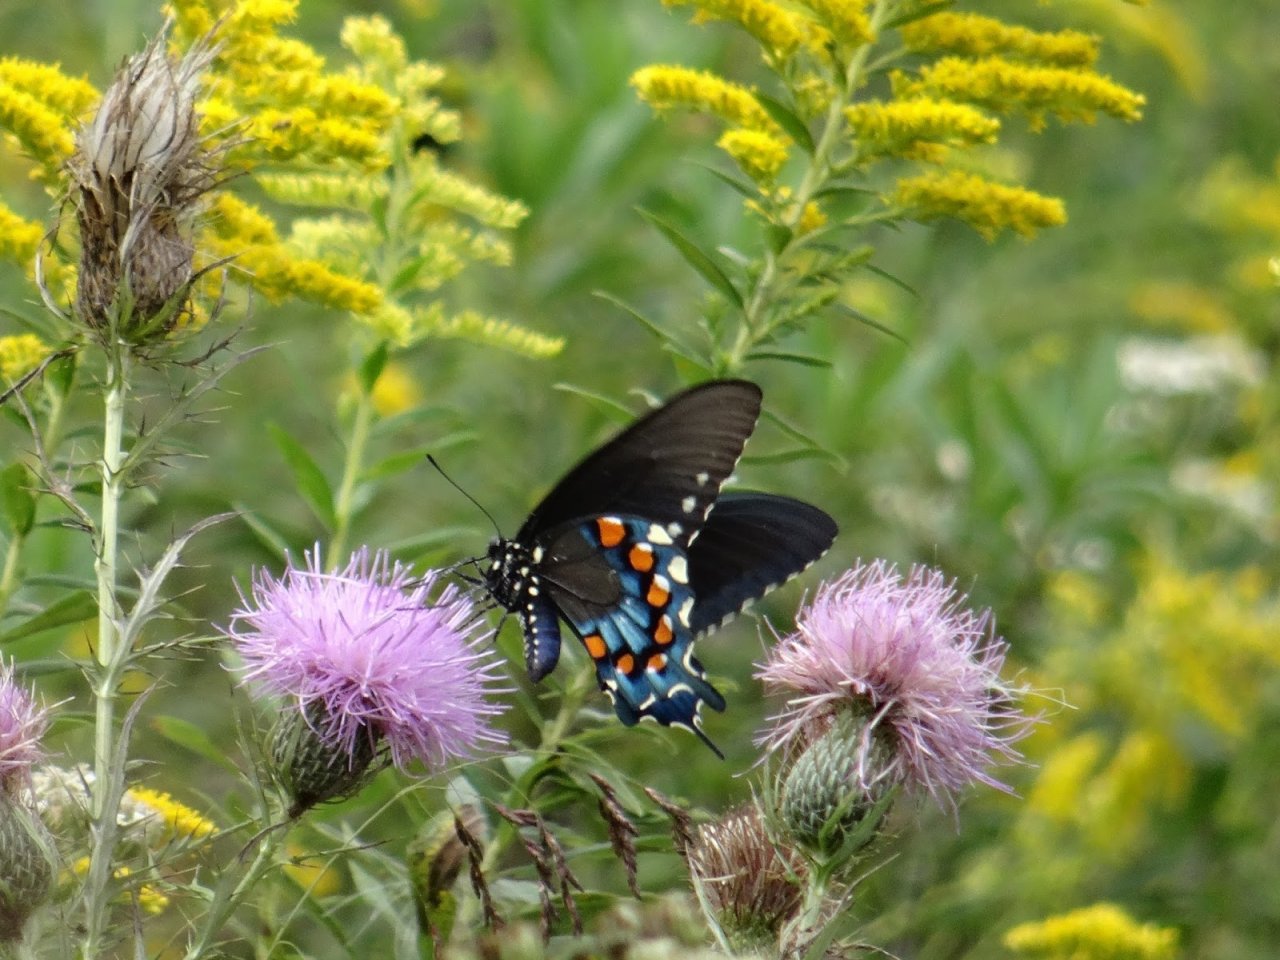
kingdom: Animalia
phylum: Arthropoda
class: Insecta
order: Lepidoptera
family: Papilionidae
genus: Battus
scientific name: Battus philenor
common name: Pipevine Swallowtail
